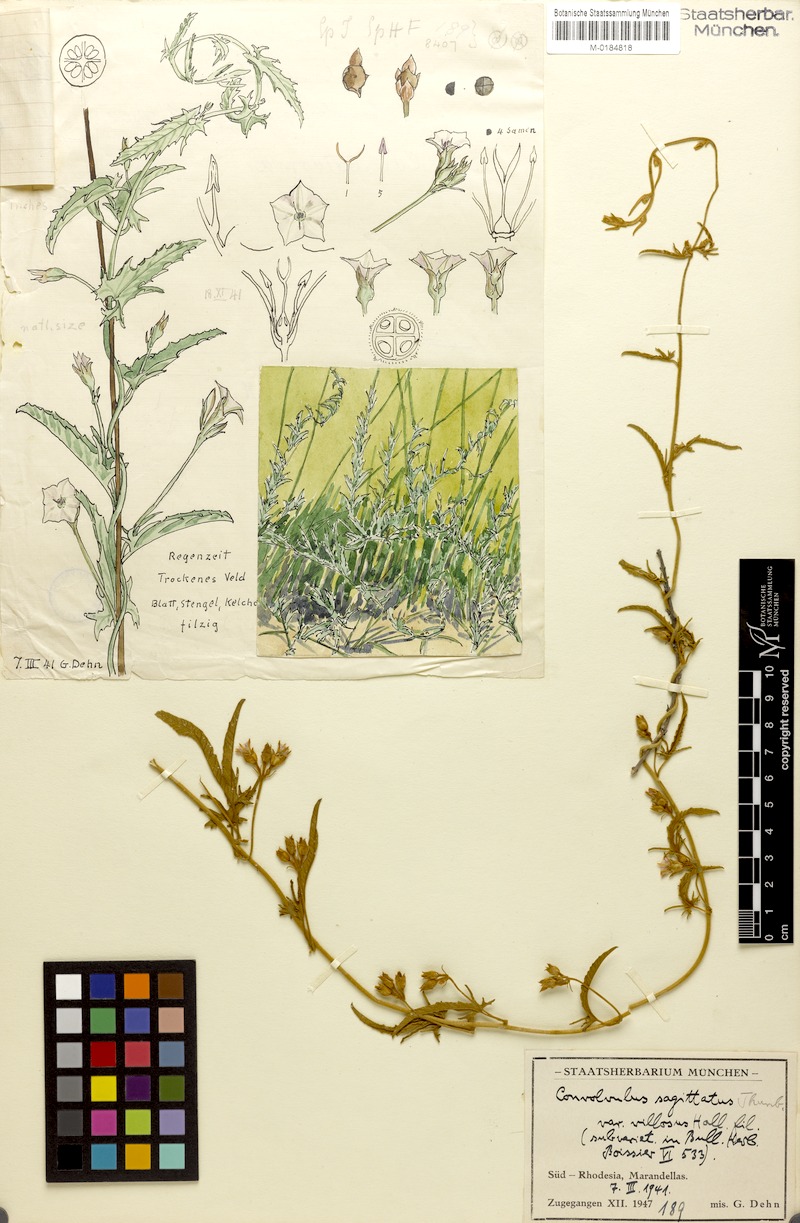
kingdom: Plantae
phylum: Tracheophyta
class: Magnoliopsida
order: Solanales
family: Convolvulaceae
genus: Convolvulus
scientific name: Convolvulus sagittatus
